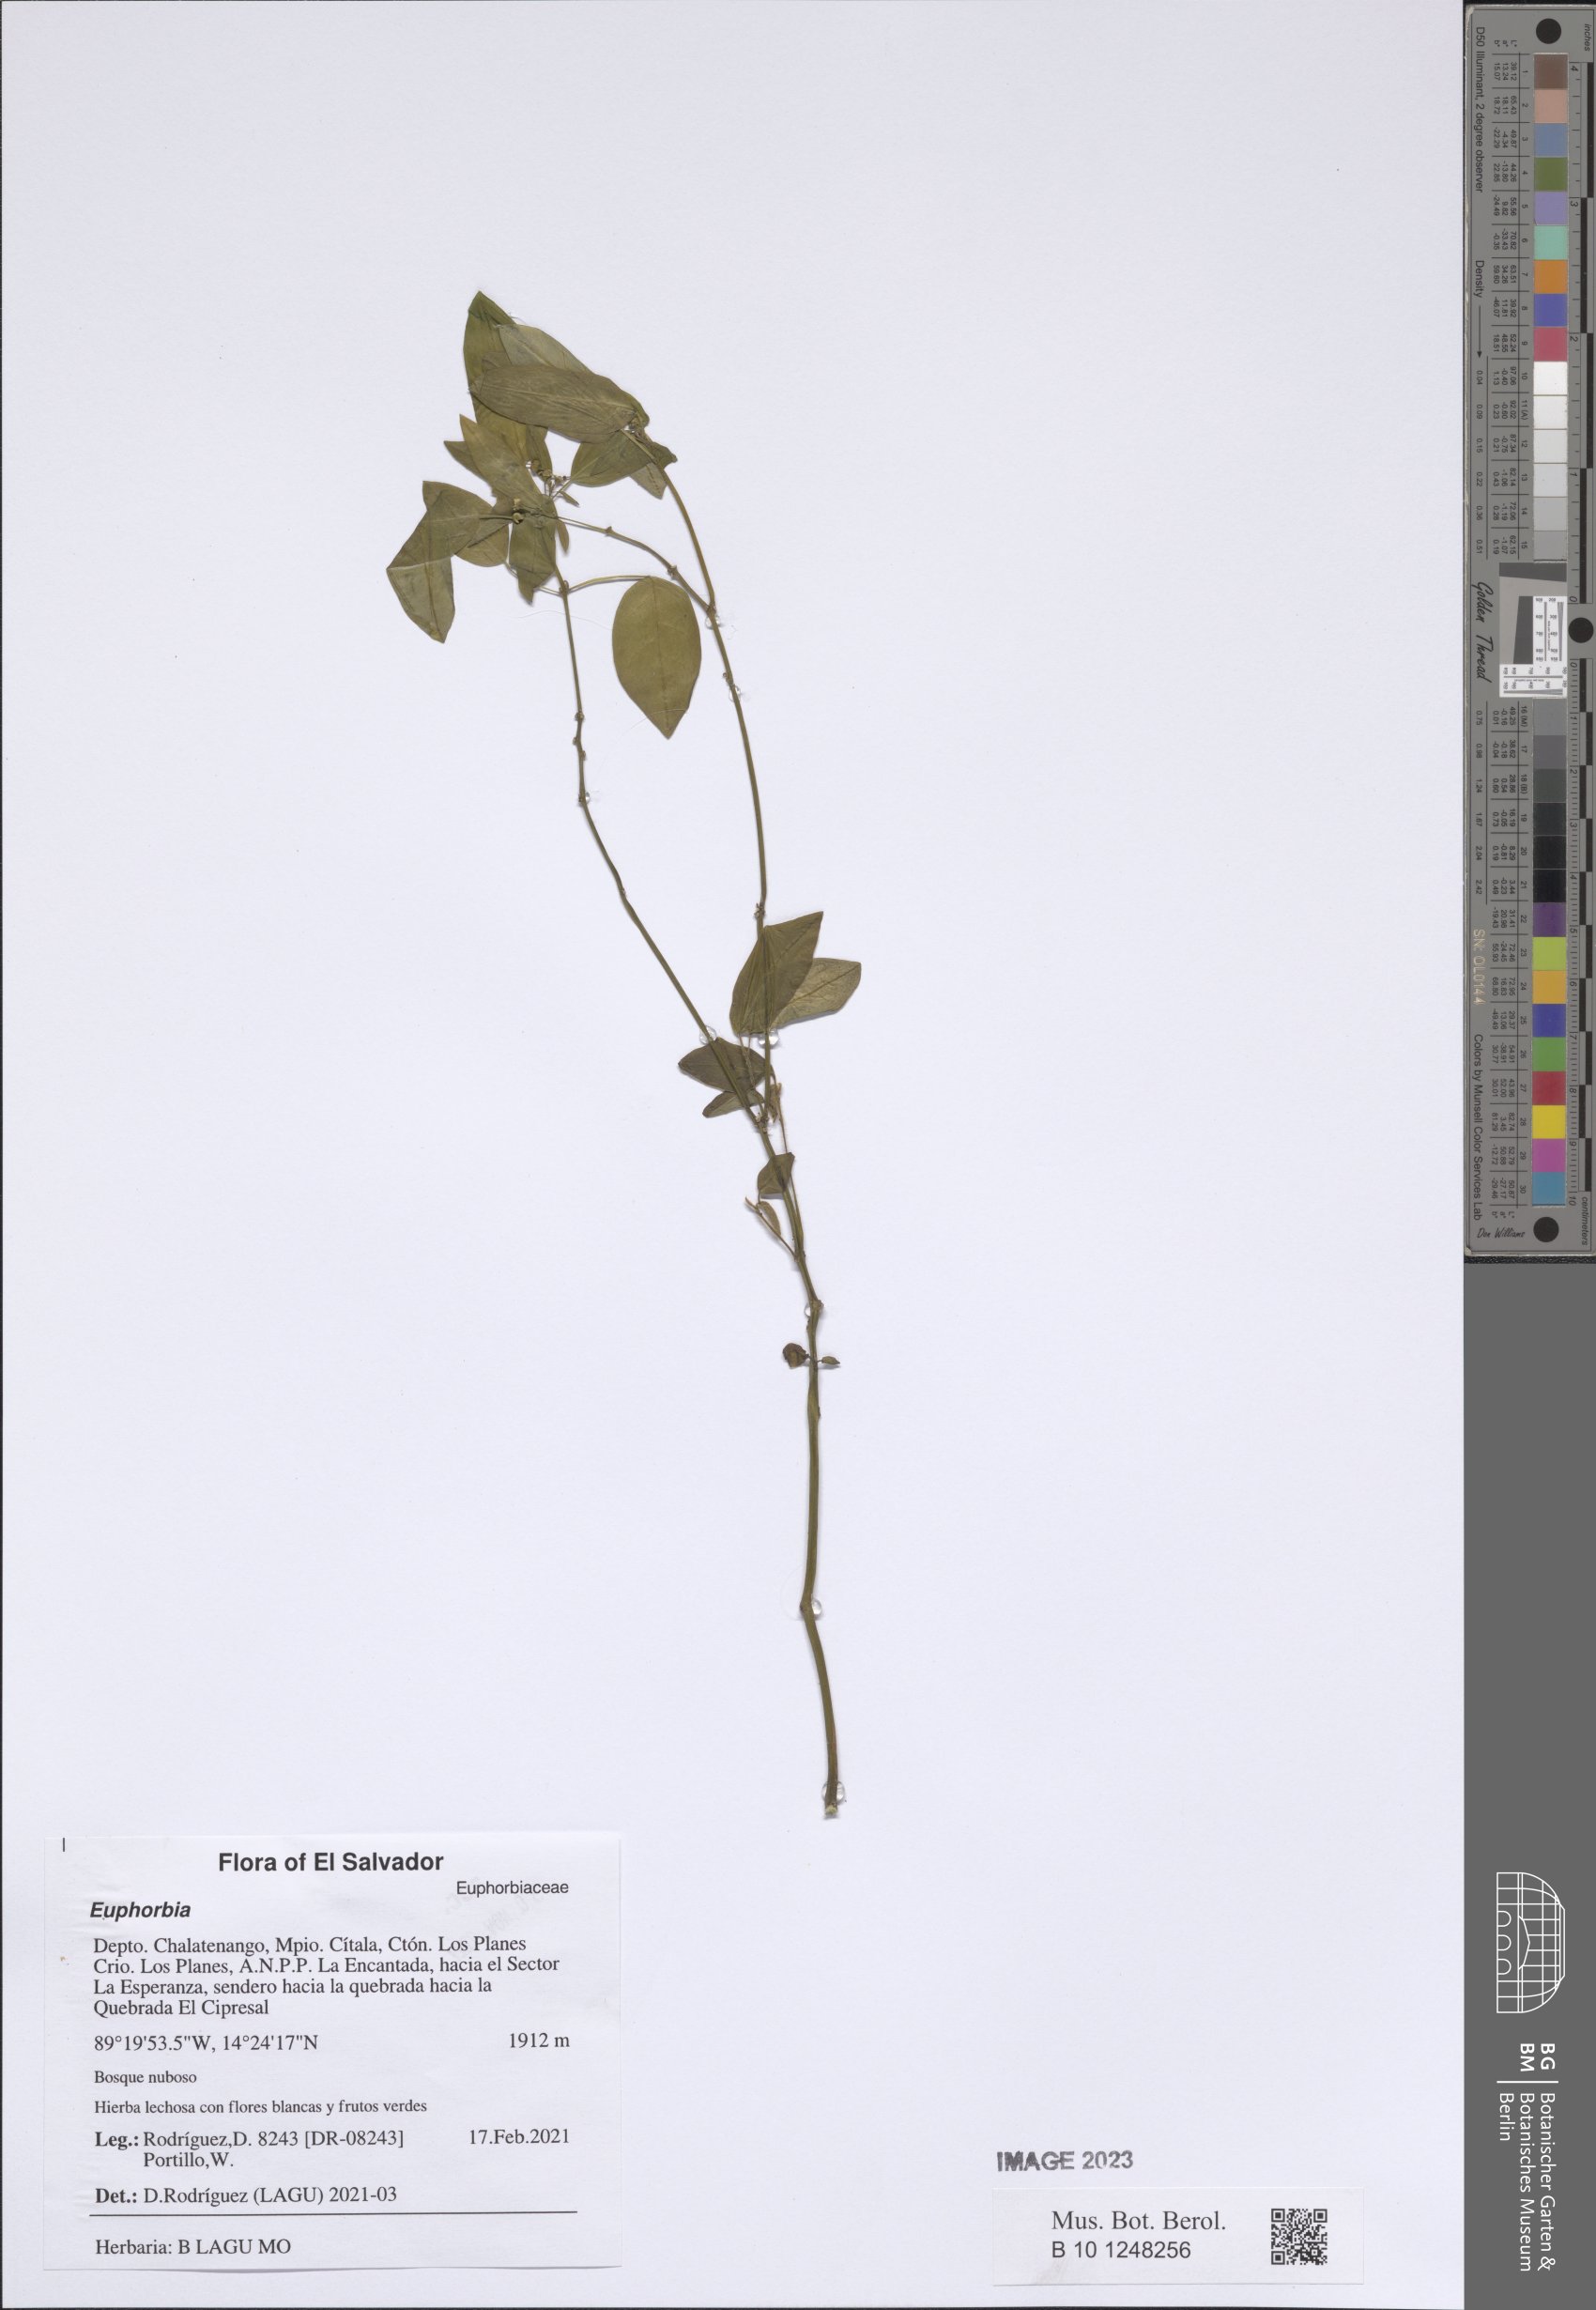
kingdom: Plantae
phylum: Tracheophyta
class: Magnoliopsida
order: Malpighiales
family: Euphorbiaceae
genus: Euphorbia
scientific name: Euphorbia
